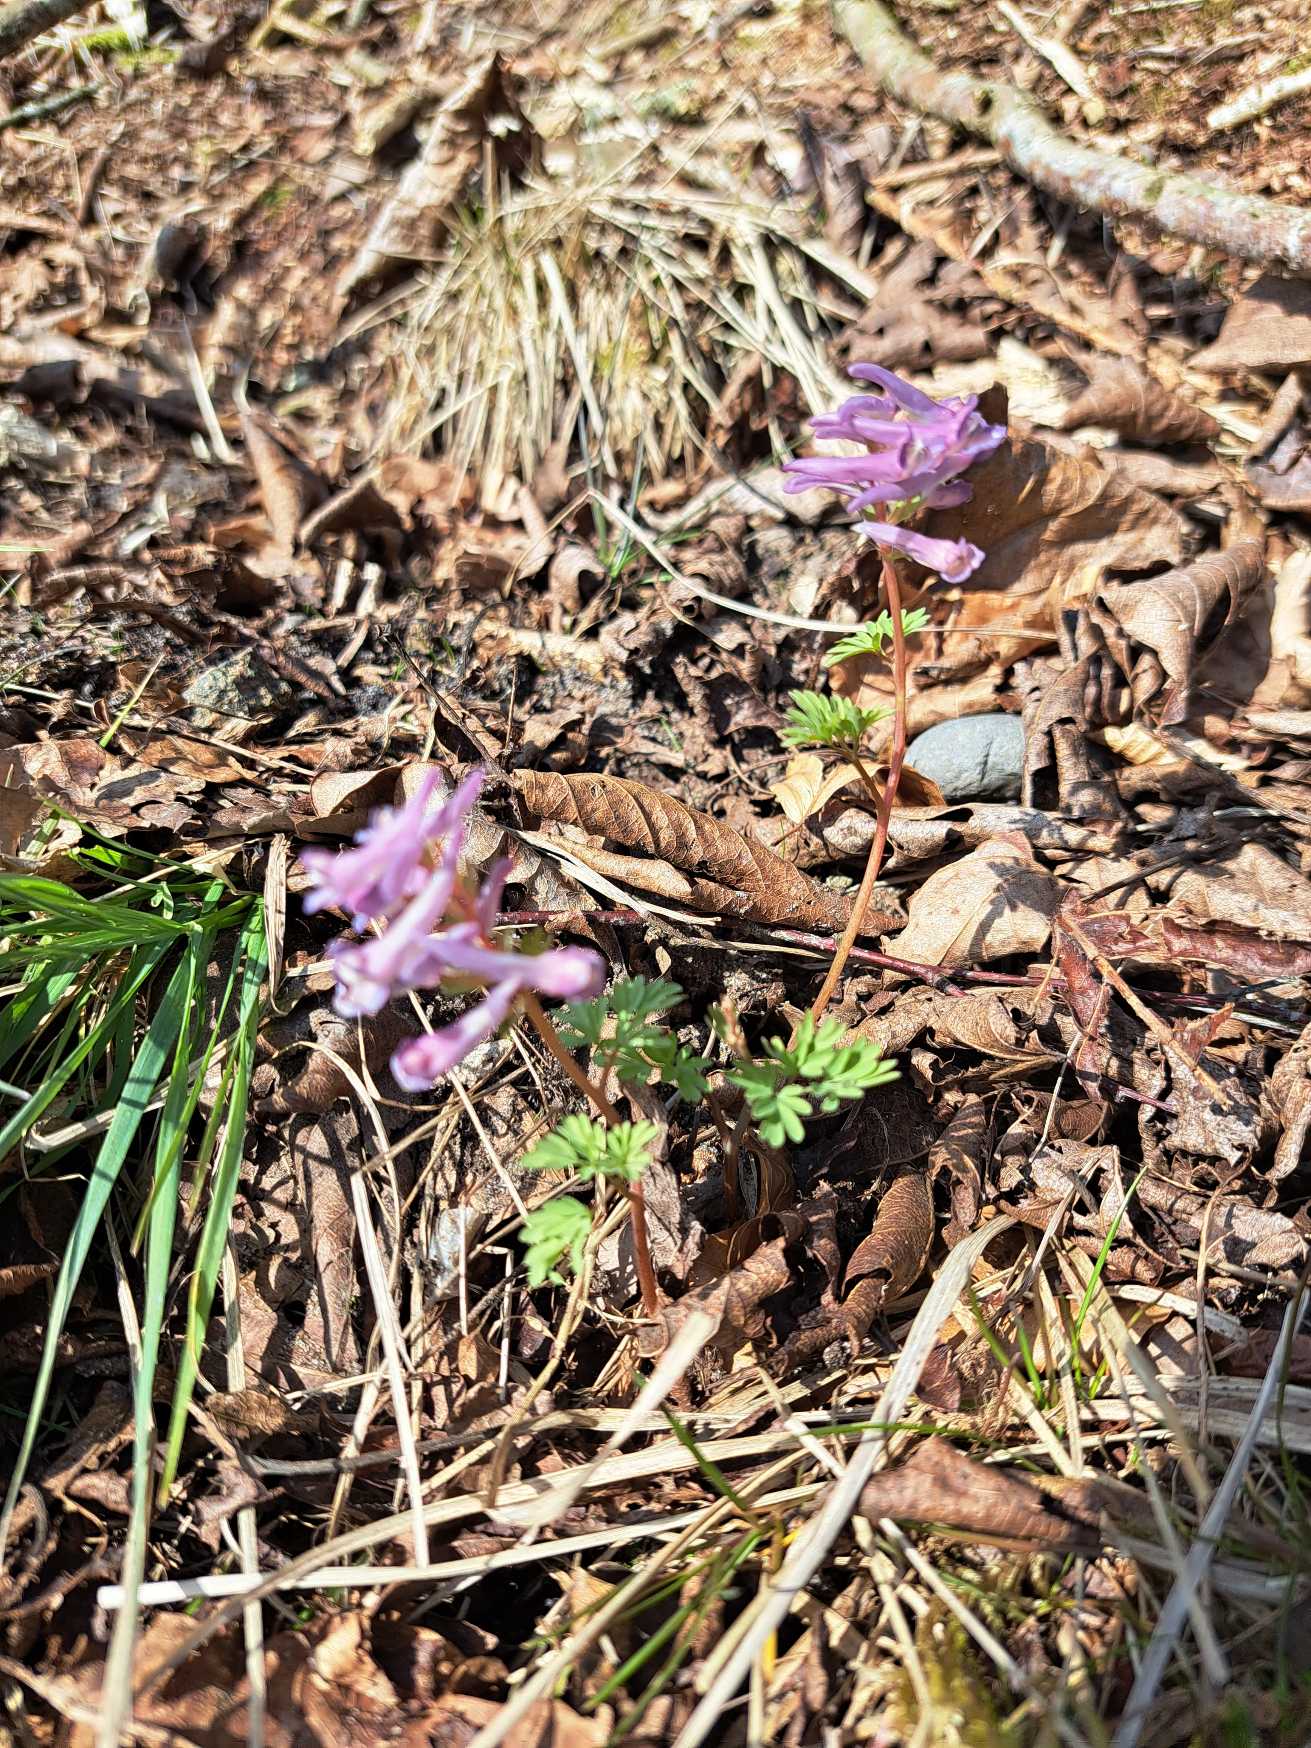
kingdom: Plantae
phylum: Tracheophyta
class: Magnoliopsida
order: Ranunculales
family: Papaveraceae
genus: Corydalis
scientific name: Corydalis solida
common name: Langstilket lærkespore
